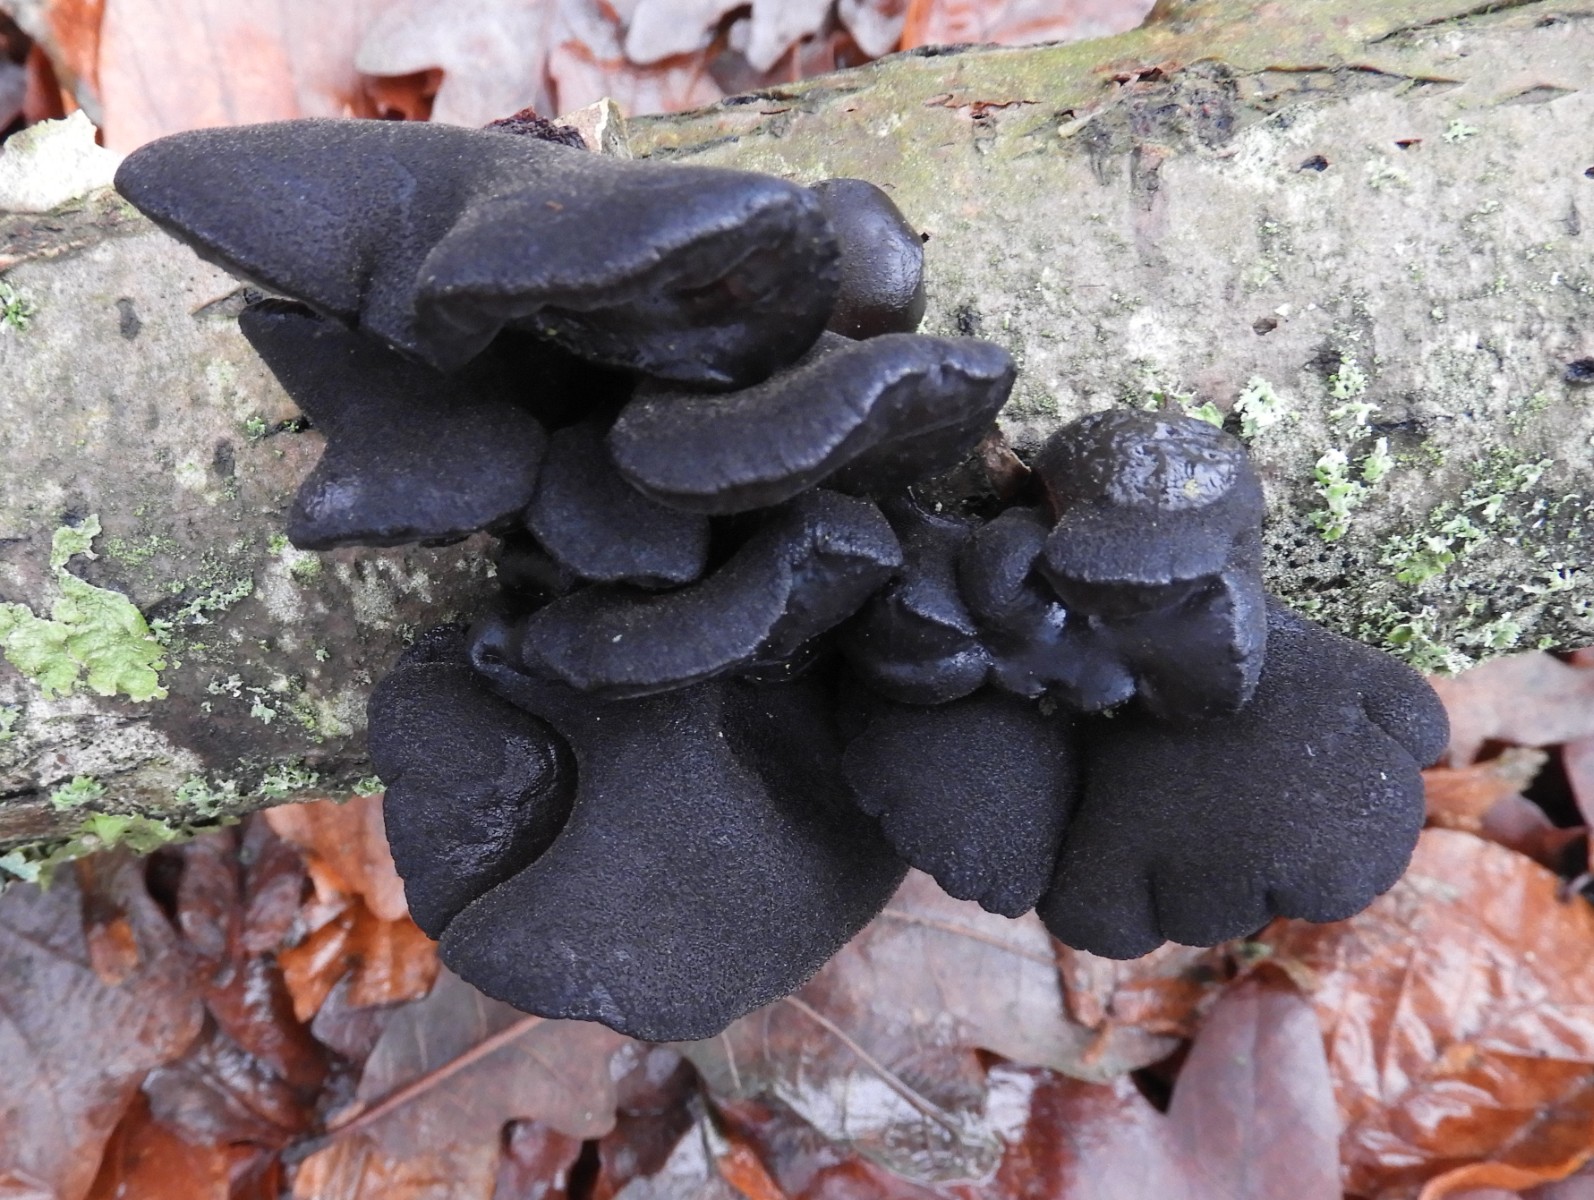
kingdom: Fungi
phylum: Basidiomycota
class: Agaricomycetes
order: Auriculariales
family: Auriculariaceae
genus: Exidia
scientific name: Exidia glandulosa
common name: ege-bævretop
